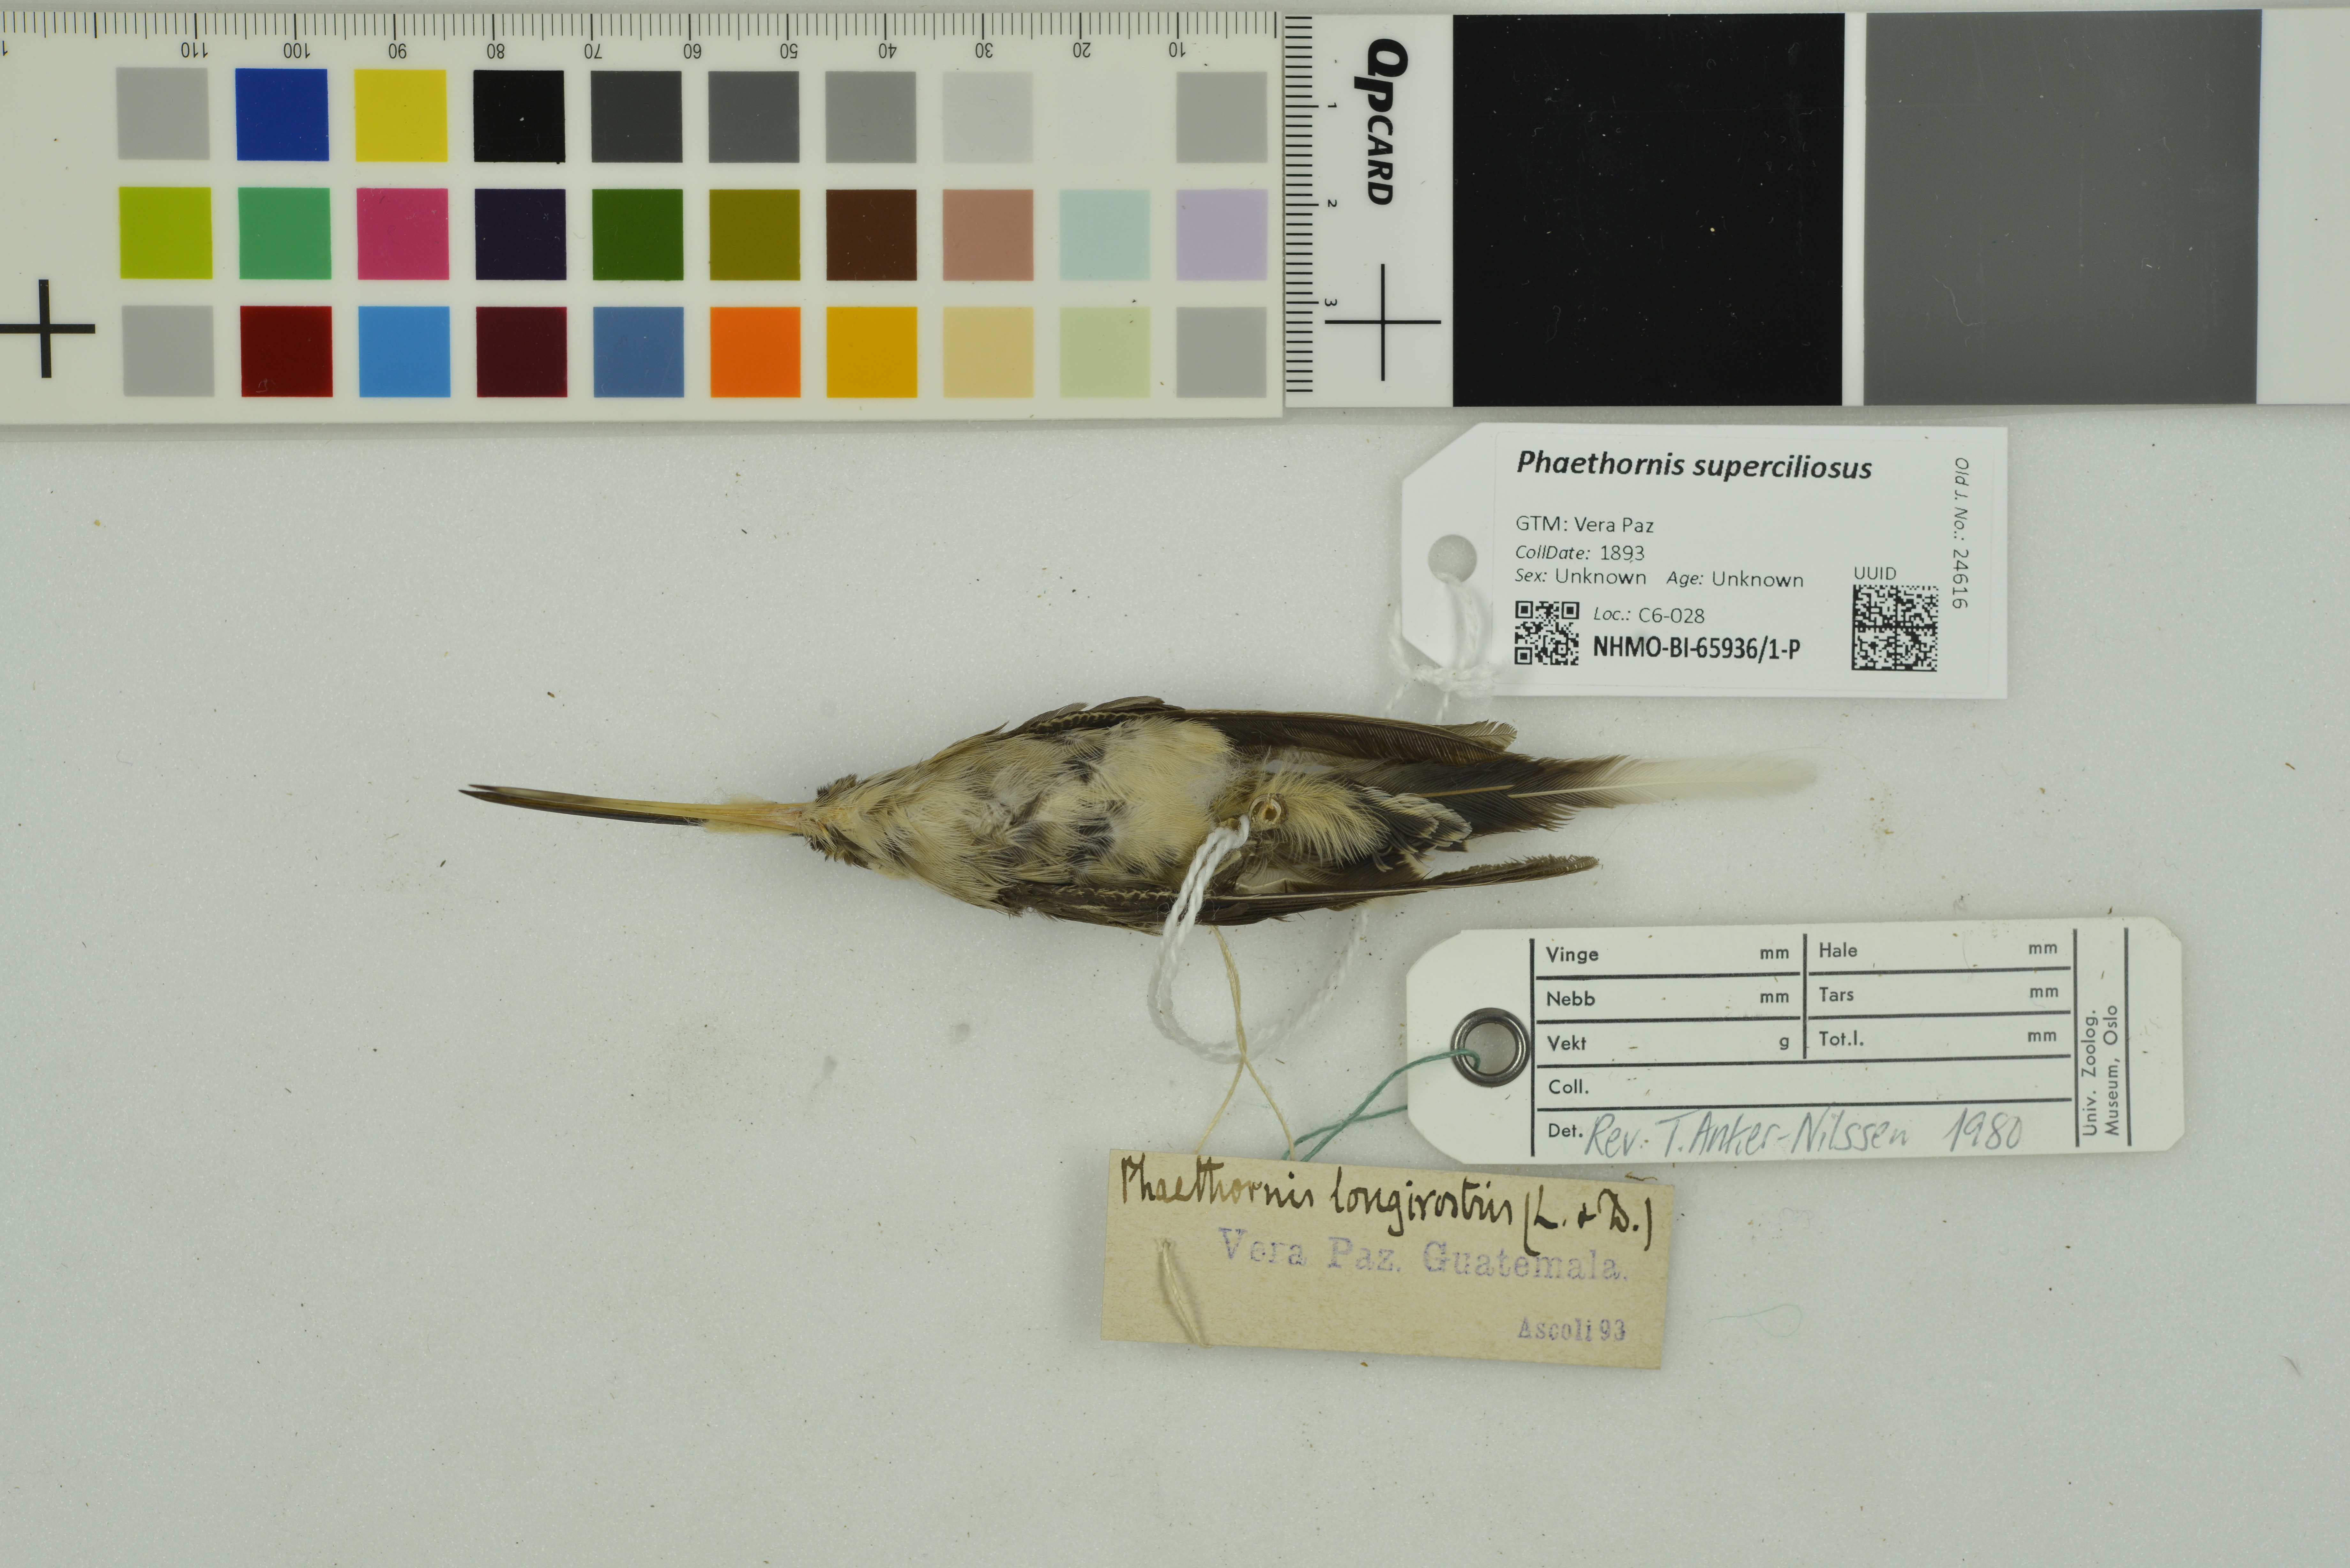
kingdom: Animalia
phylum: Chordata
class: Aves
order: Apodiformes
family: Trochilidae
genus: Phaethornis
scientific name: Phaethornis superciliosus
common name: Long-tailed hermit
